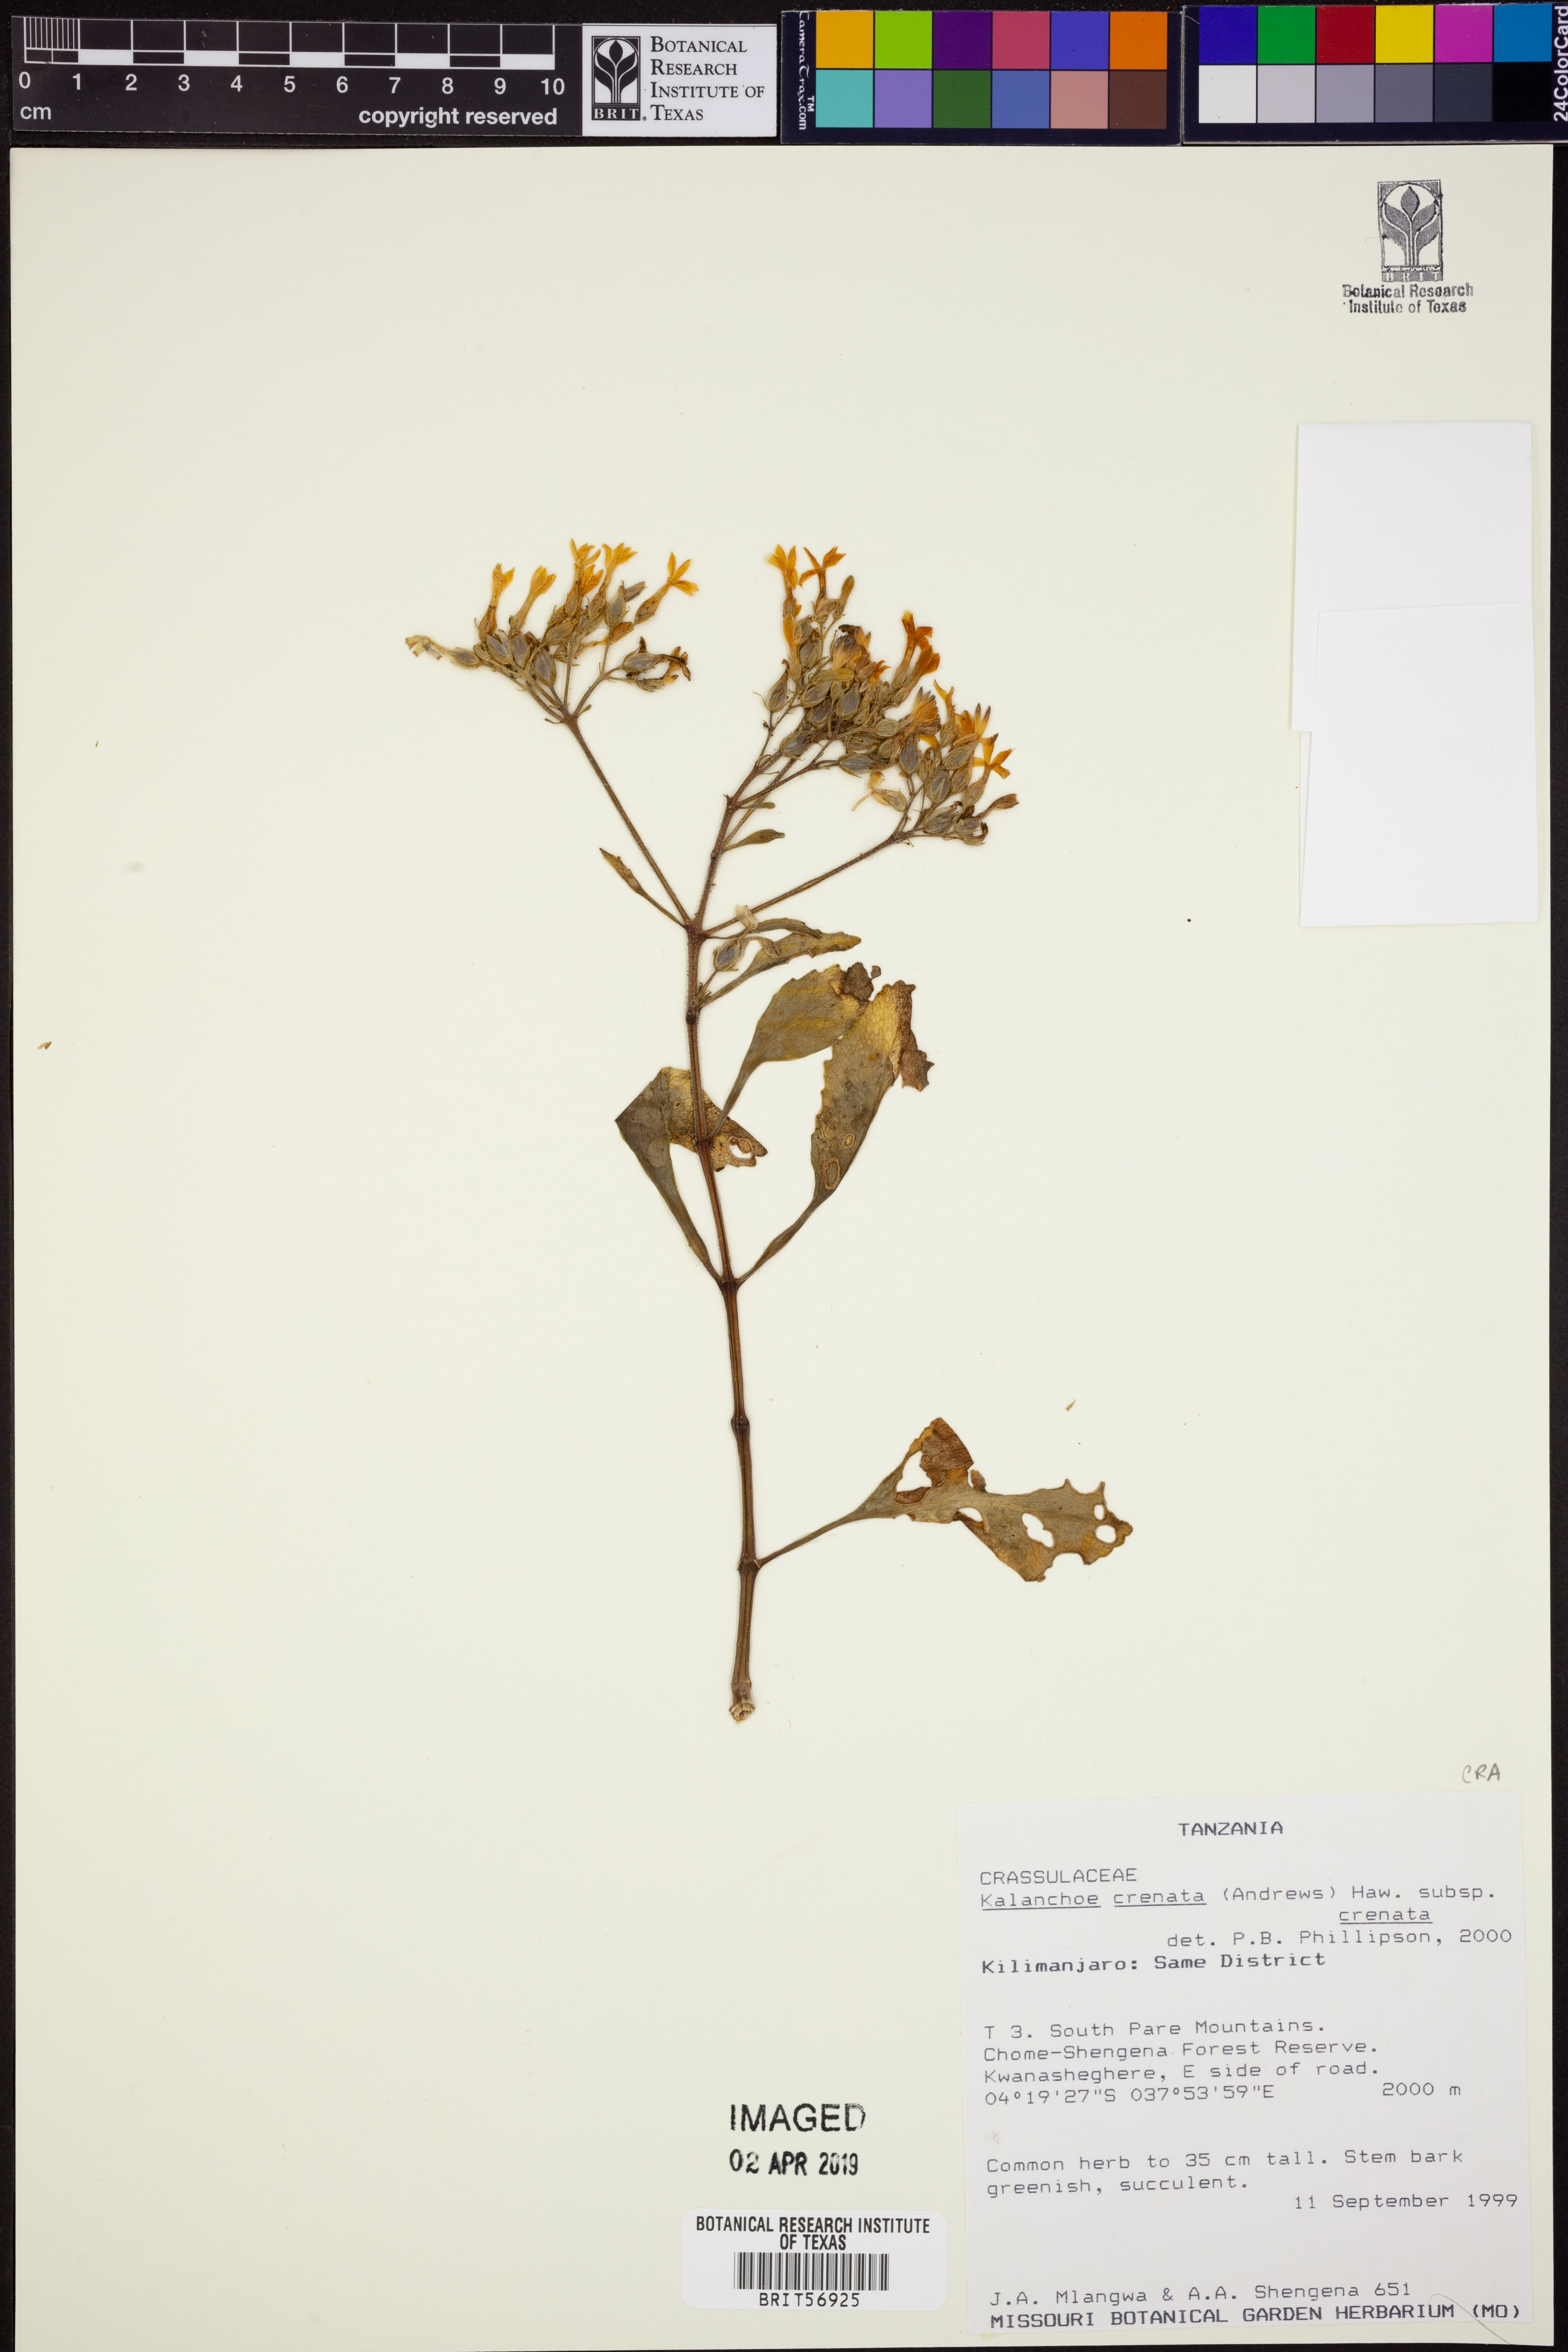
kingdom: Plantae
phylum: Tracheophyta
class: Magnoliopsida
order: Saxifragales
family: Crassulaceae
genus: Kalanchoe
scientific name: Kalanchoe crenata
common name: Neverdie
